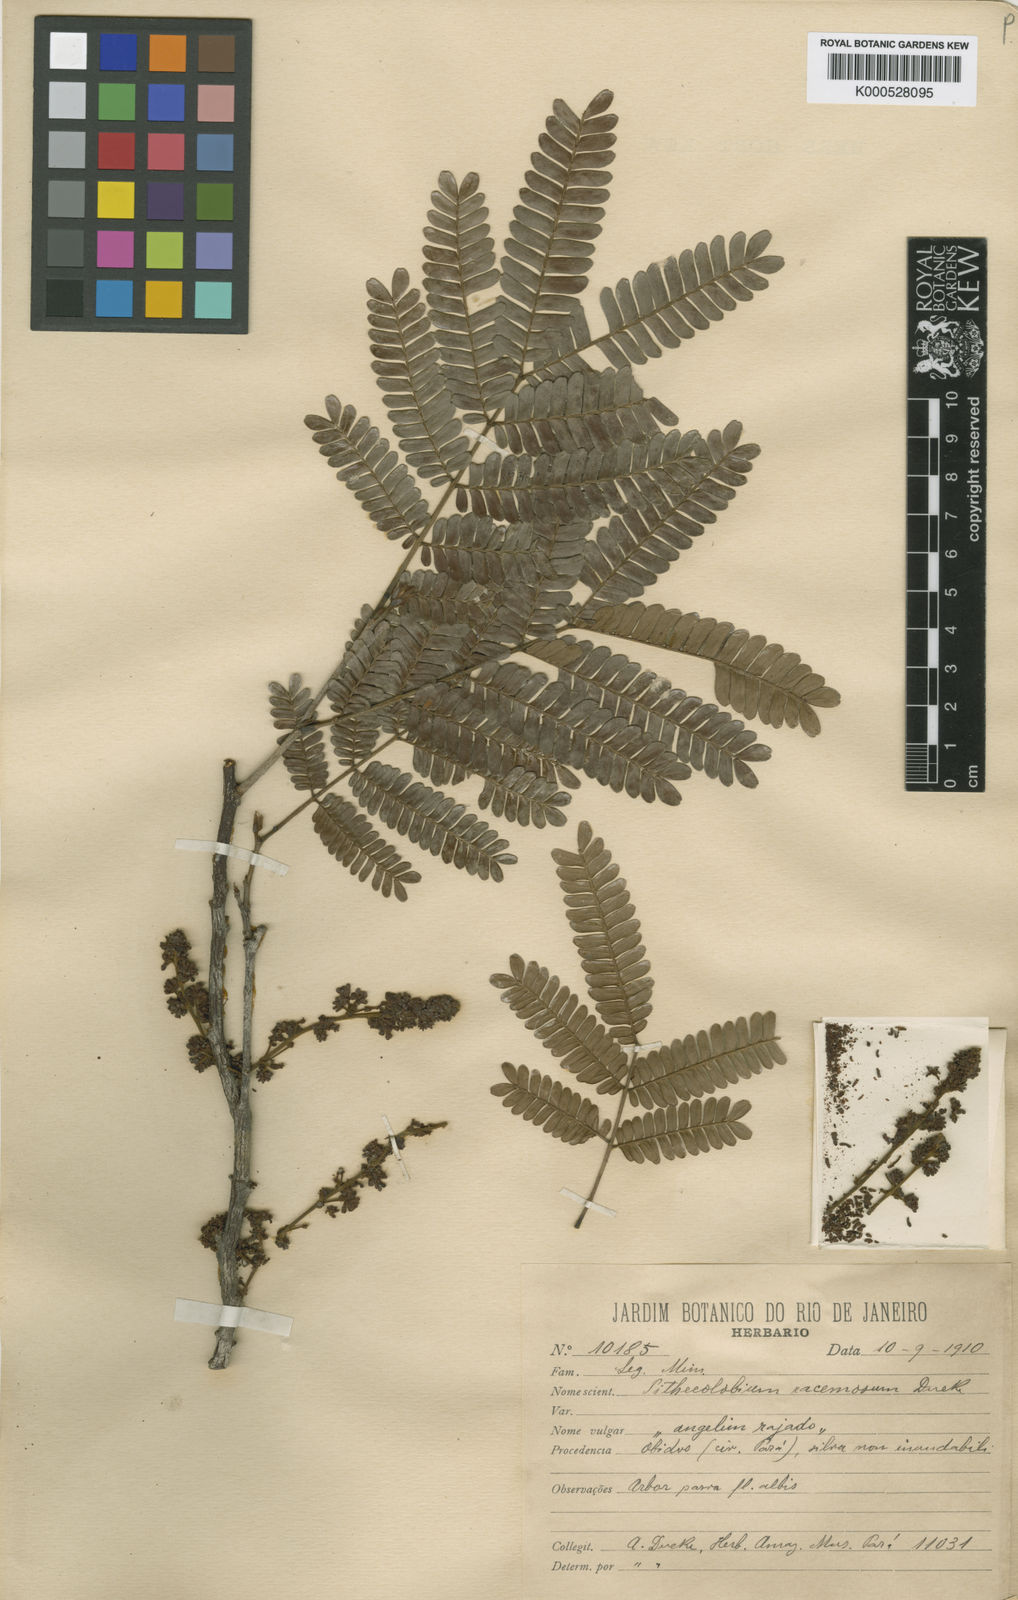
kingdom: Plantae
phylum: Tracheophyta
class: Magnoliopsida
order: Fabales
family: Fabaceae
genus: Marmaroxylon
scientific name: Marmaroxylon
